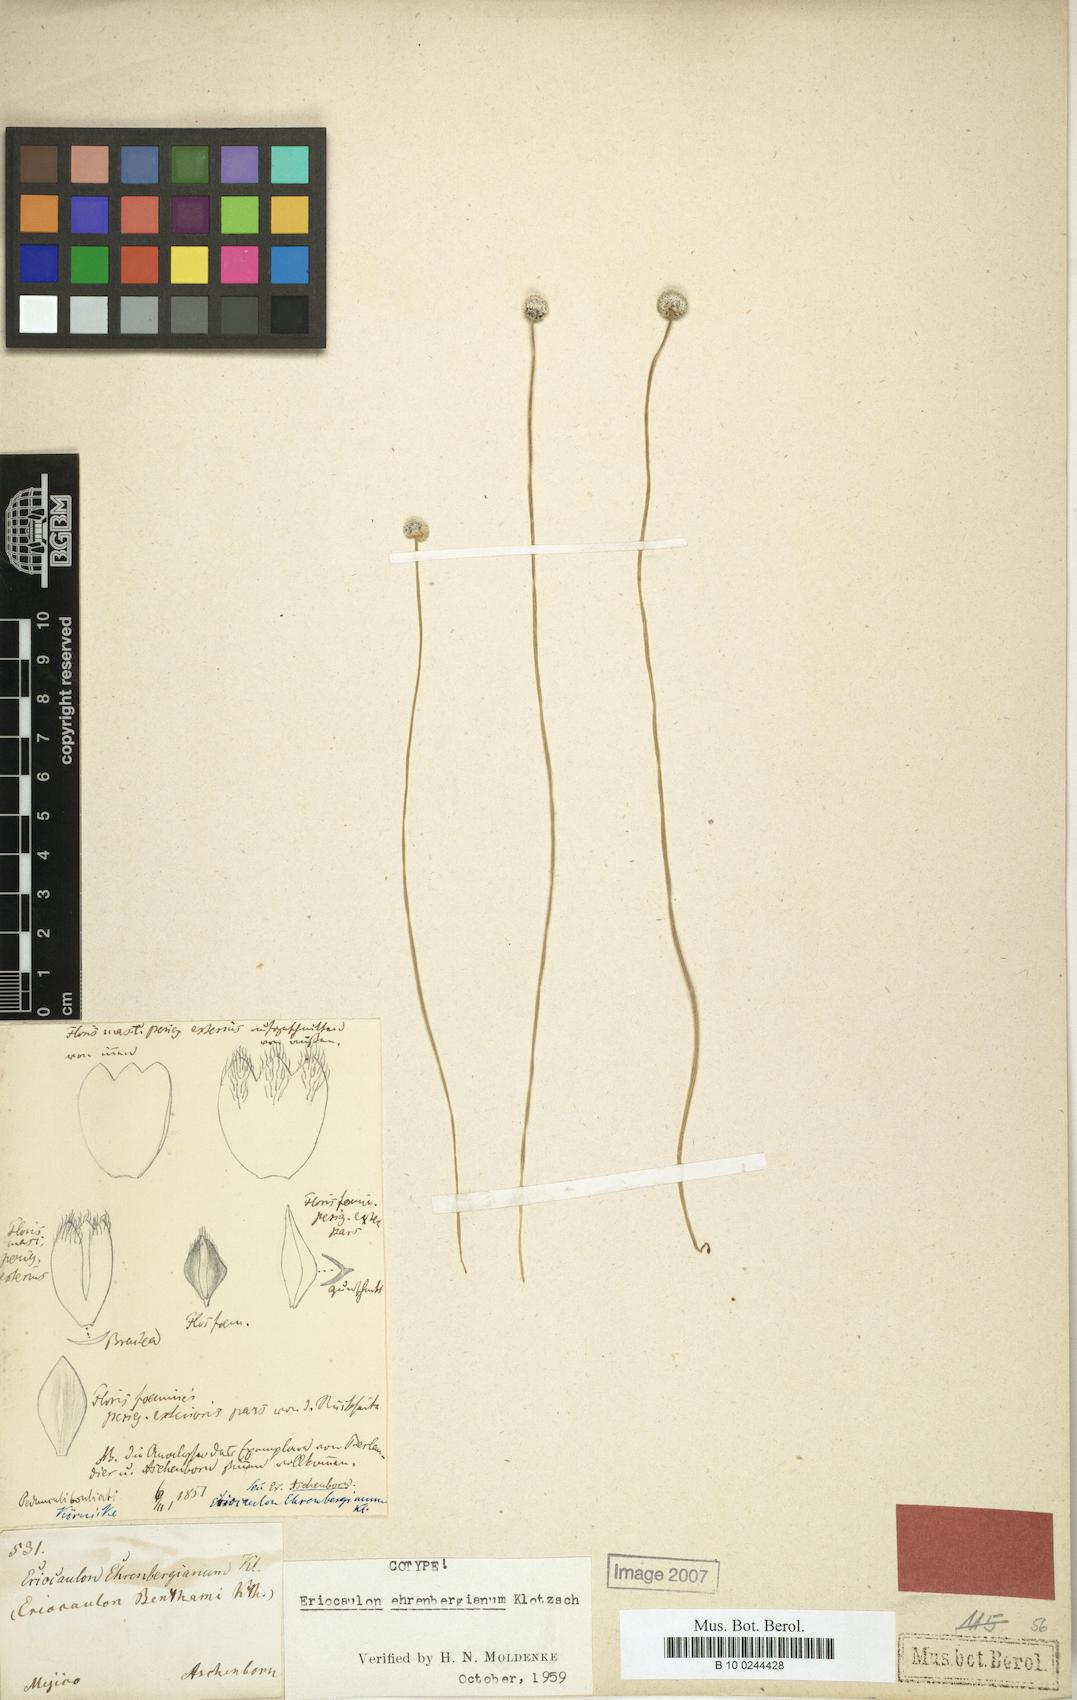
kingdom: Plantae
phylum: Tracheophyta
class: Liliopsida
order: Poales
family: Eriocaulaceae
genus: Eriocaulon
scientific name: Eriocaulon ehrenbergianum
